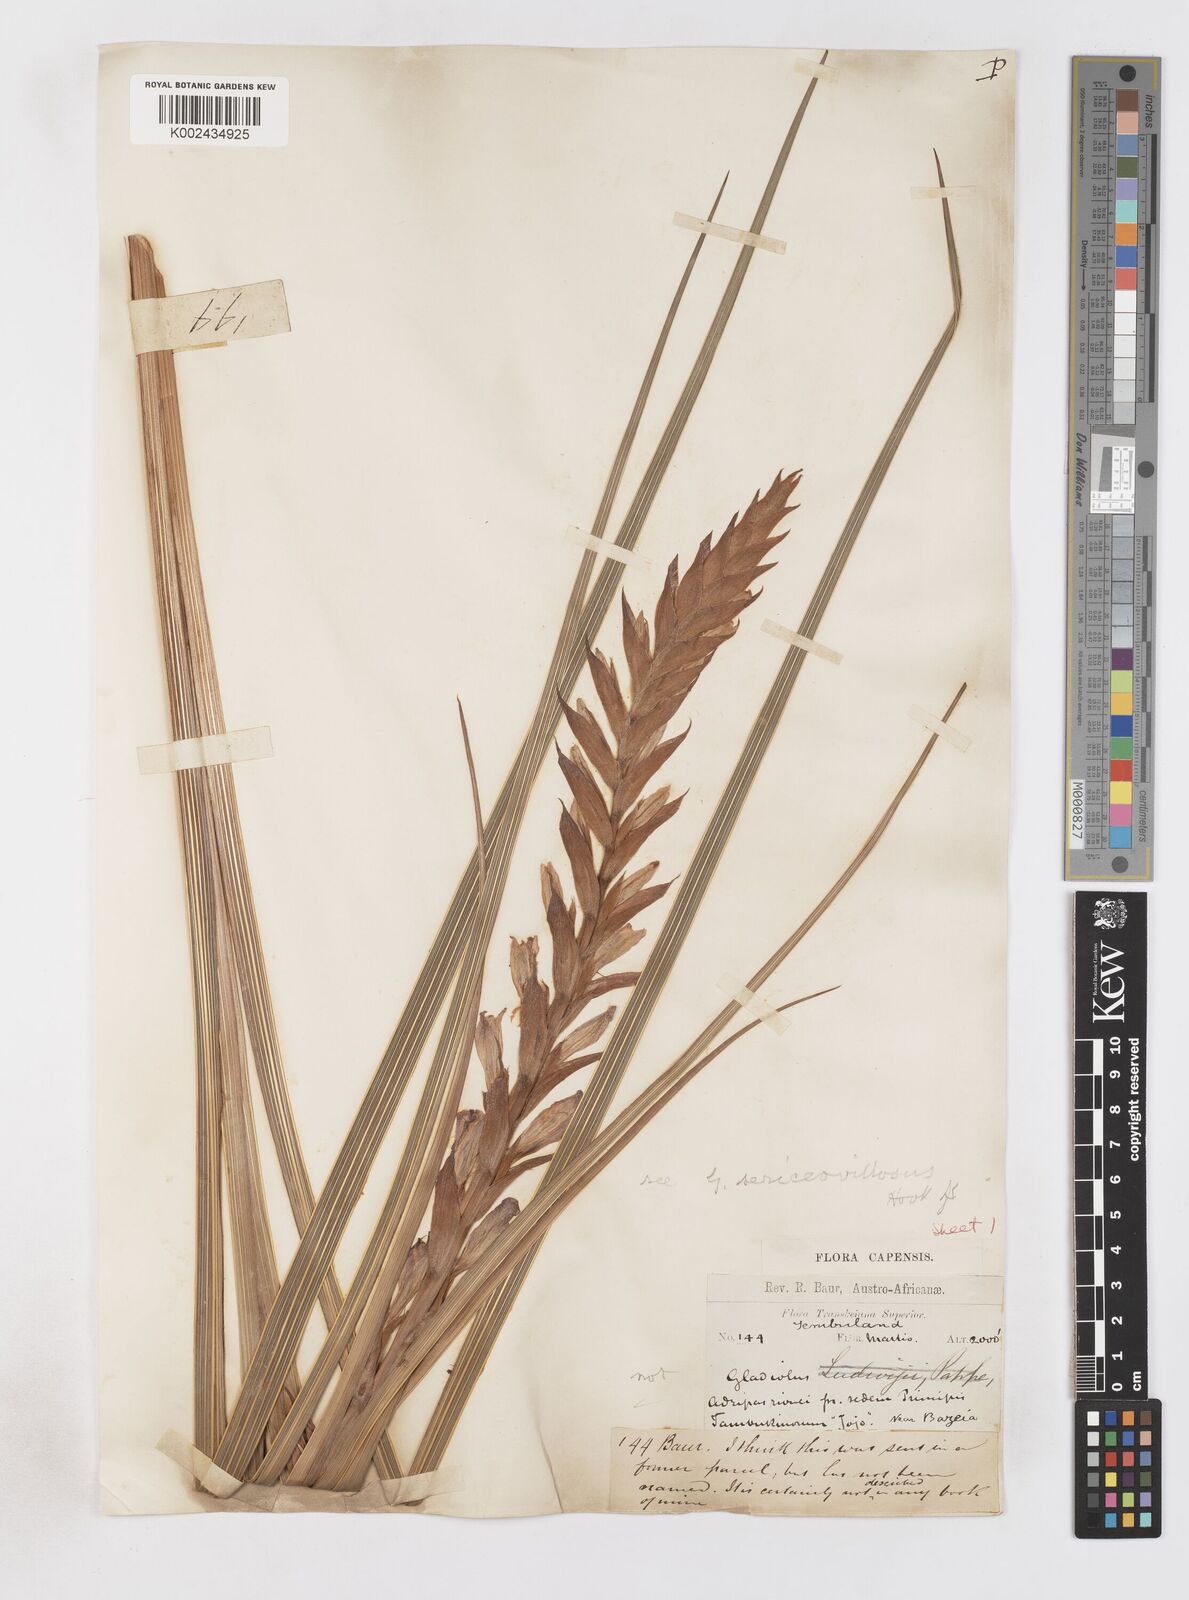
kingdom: Plantae
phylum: Tracheophyta
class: Liliopsida
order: Asparagales
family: Iridaceae
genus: Gladiolus
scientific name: Gladiolus sericeovillosus
